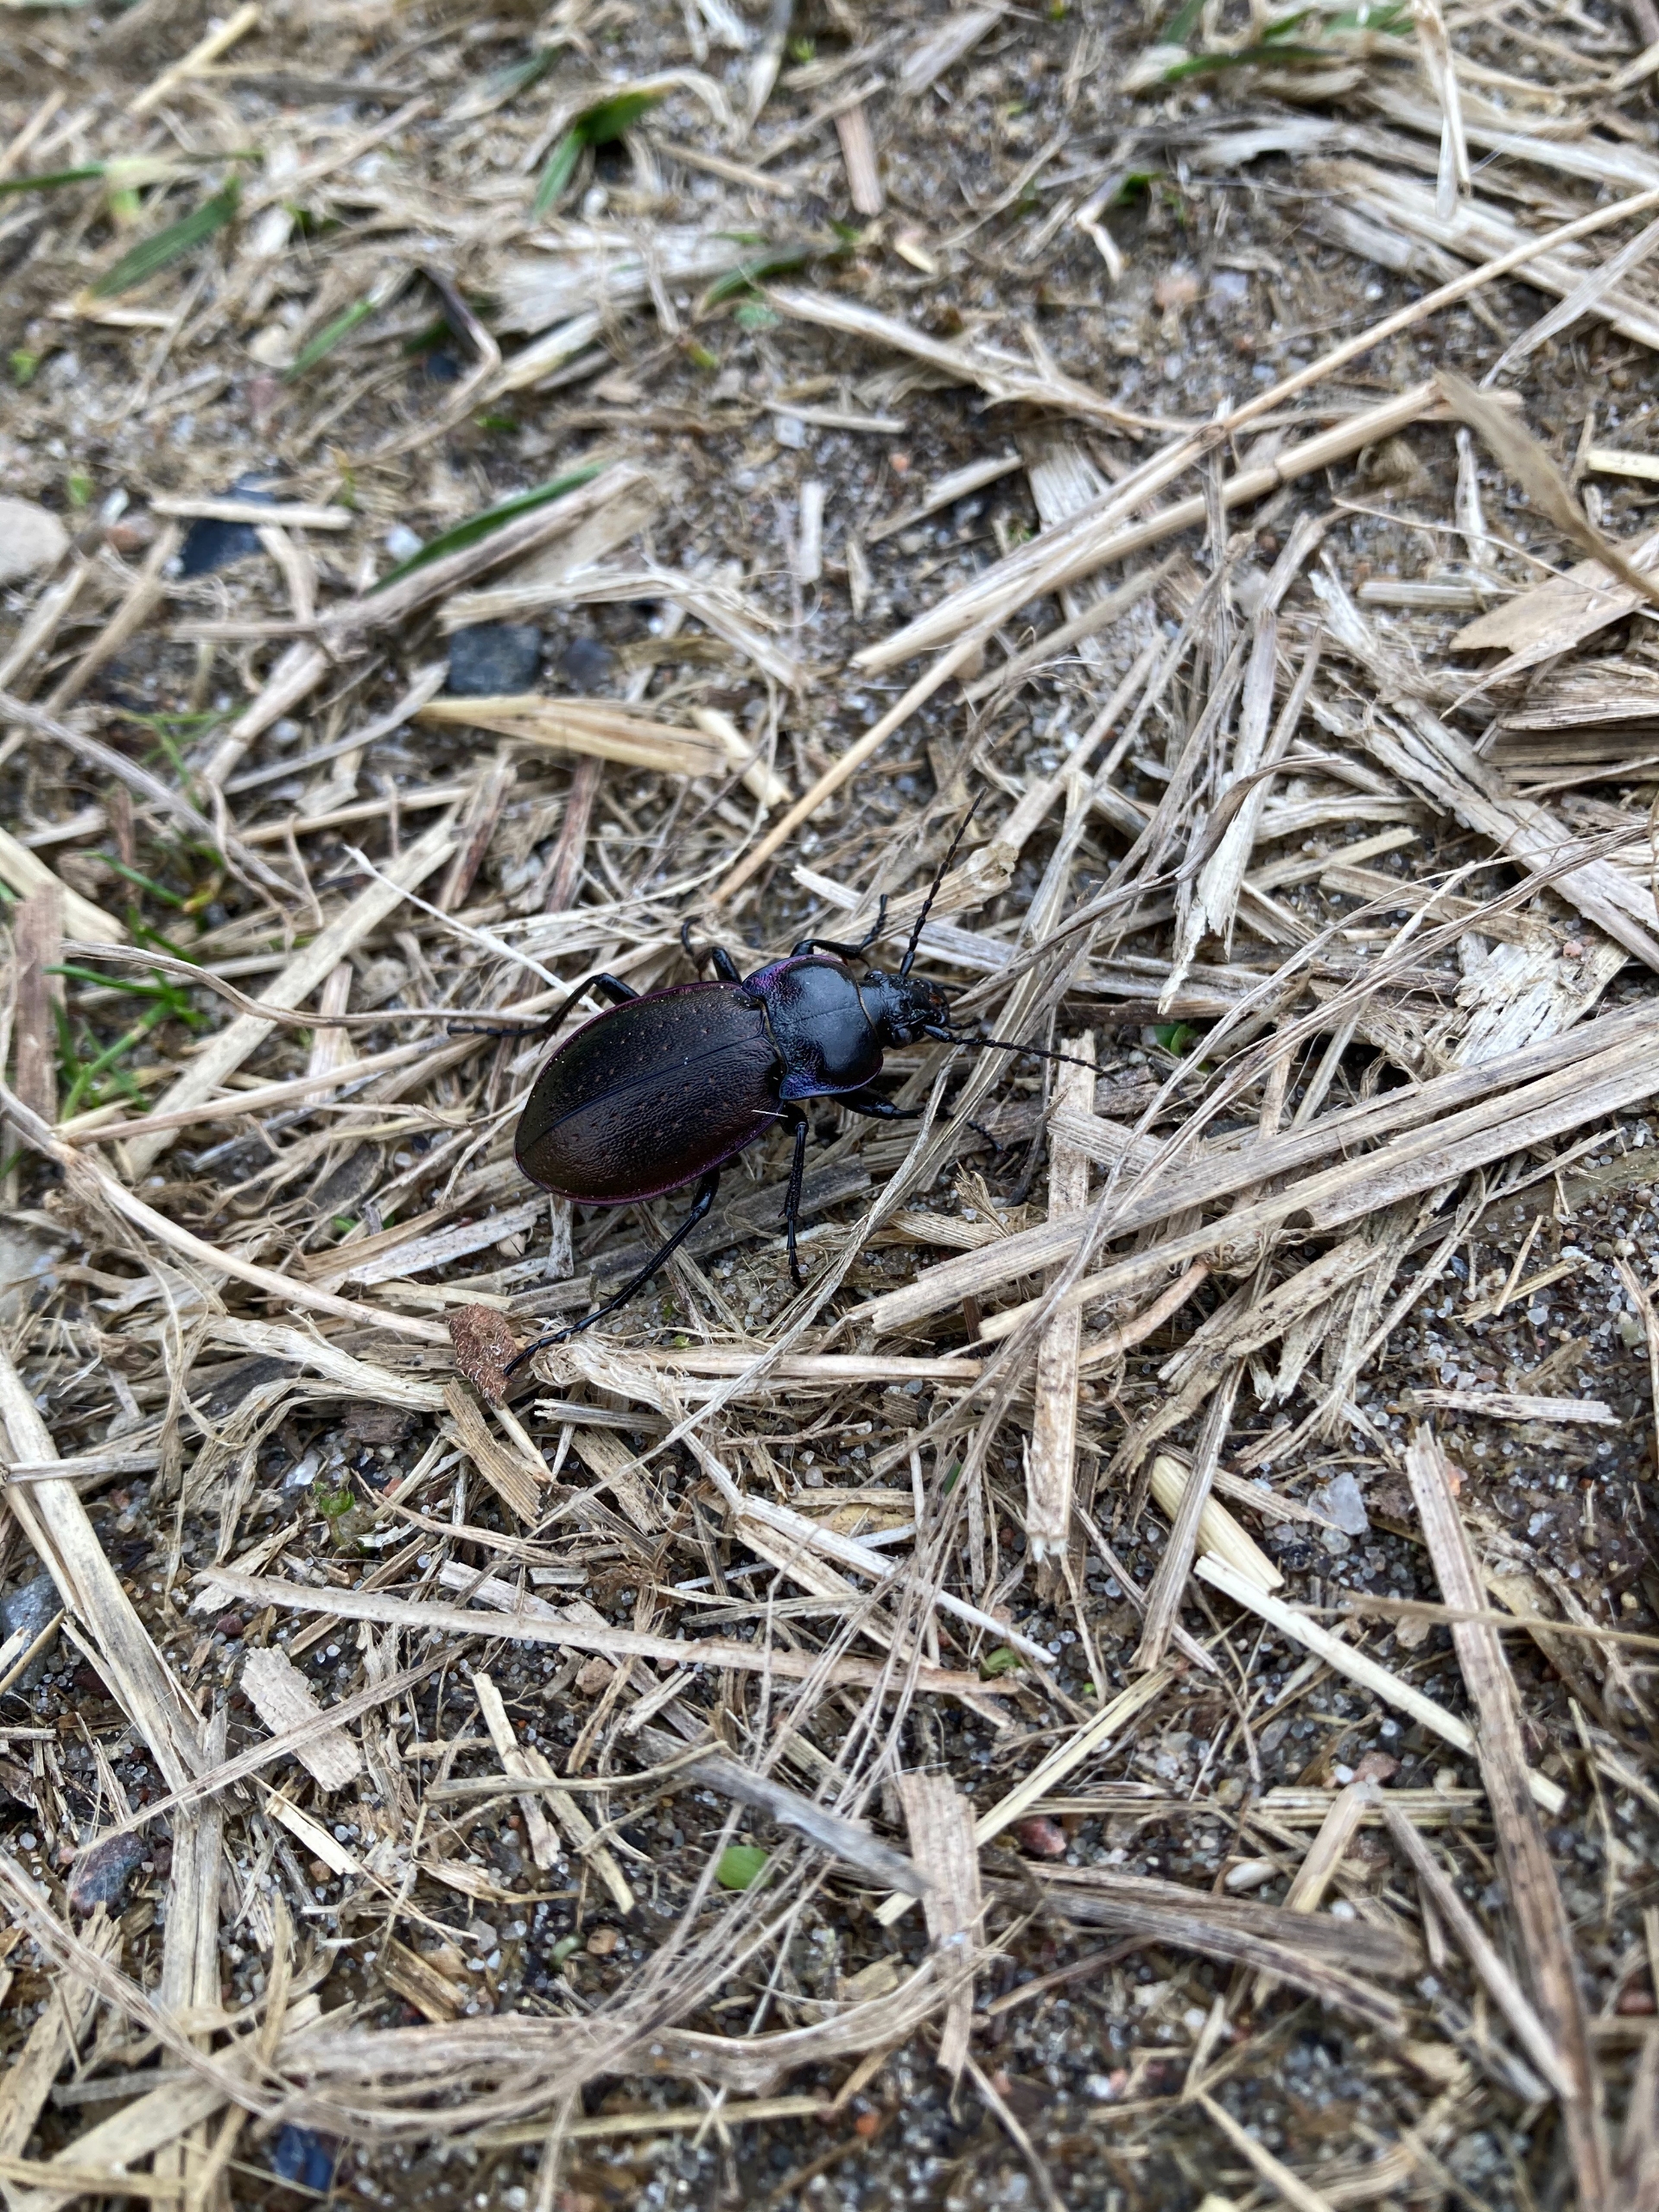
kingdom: Animalia
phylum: Arthropoda
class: Insecta
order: Coleoptera
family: Carabidae
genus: Carabus
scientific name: Carabus nemoralis
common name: Kratløber
